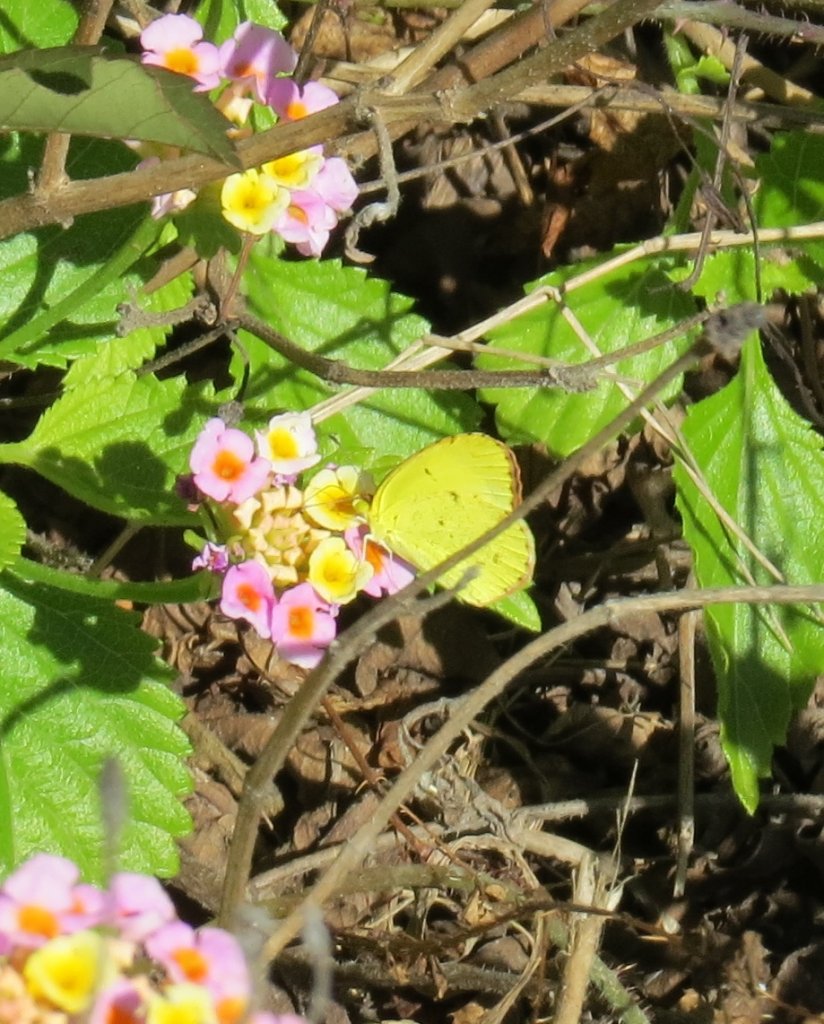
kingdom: Animalia
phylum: Arthropoda
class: Insecta
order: Lepidoptera
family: Pieridae
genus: Pyrisitia
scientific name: Pyrisitia lisa
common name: Little Yellow
